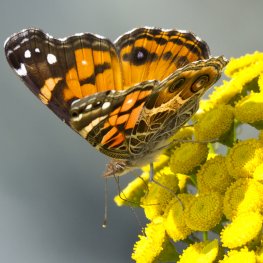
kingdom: Animalia
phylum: Arthropoda
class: Insecta
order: Lepidoptera
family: Nymphalidae
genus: Vanessa
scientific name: Vanessa virginiensis
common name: American Lady
